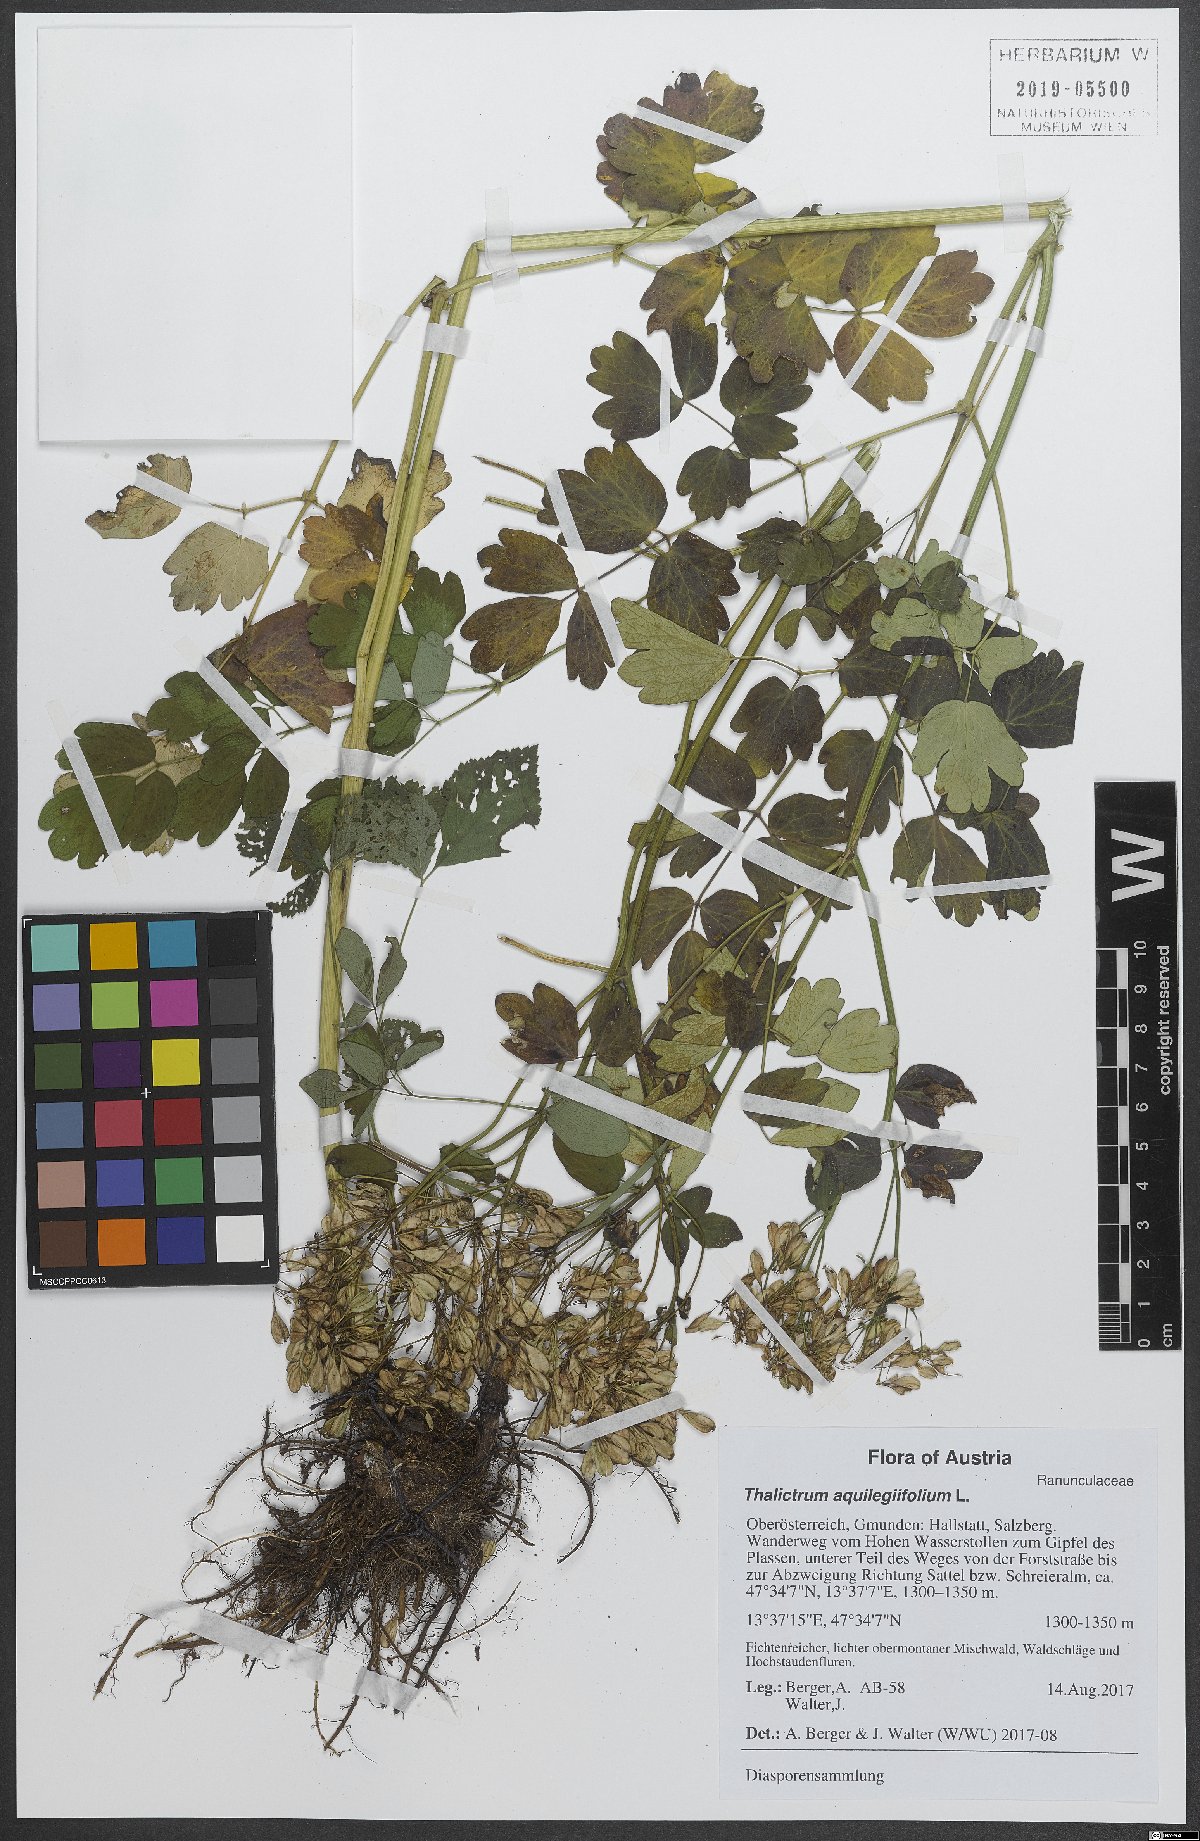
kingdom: Plantae
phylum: Tracheophyta
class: Magnoliopsida
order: Ranunculales
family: Ranunculaceae
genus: Thalictrum
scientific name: Thalictrum aquilegiifolium
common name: French meadow-rue
